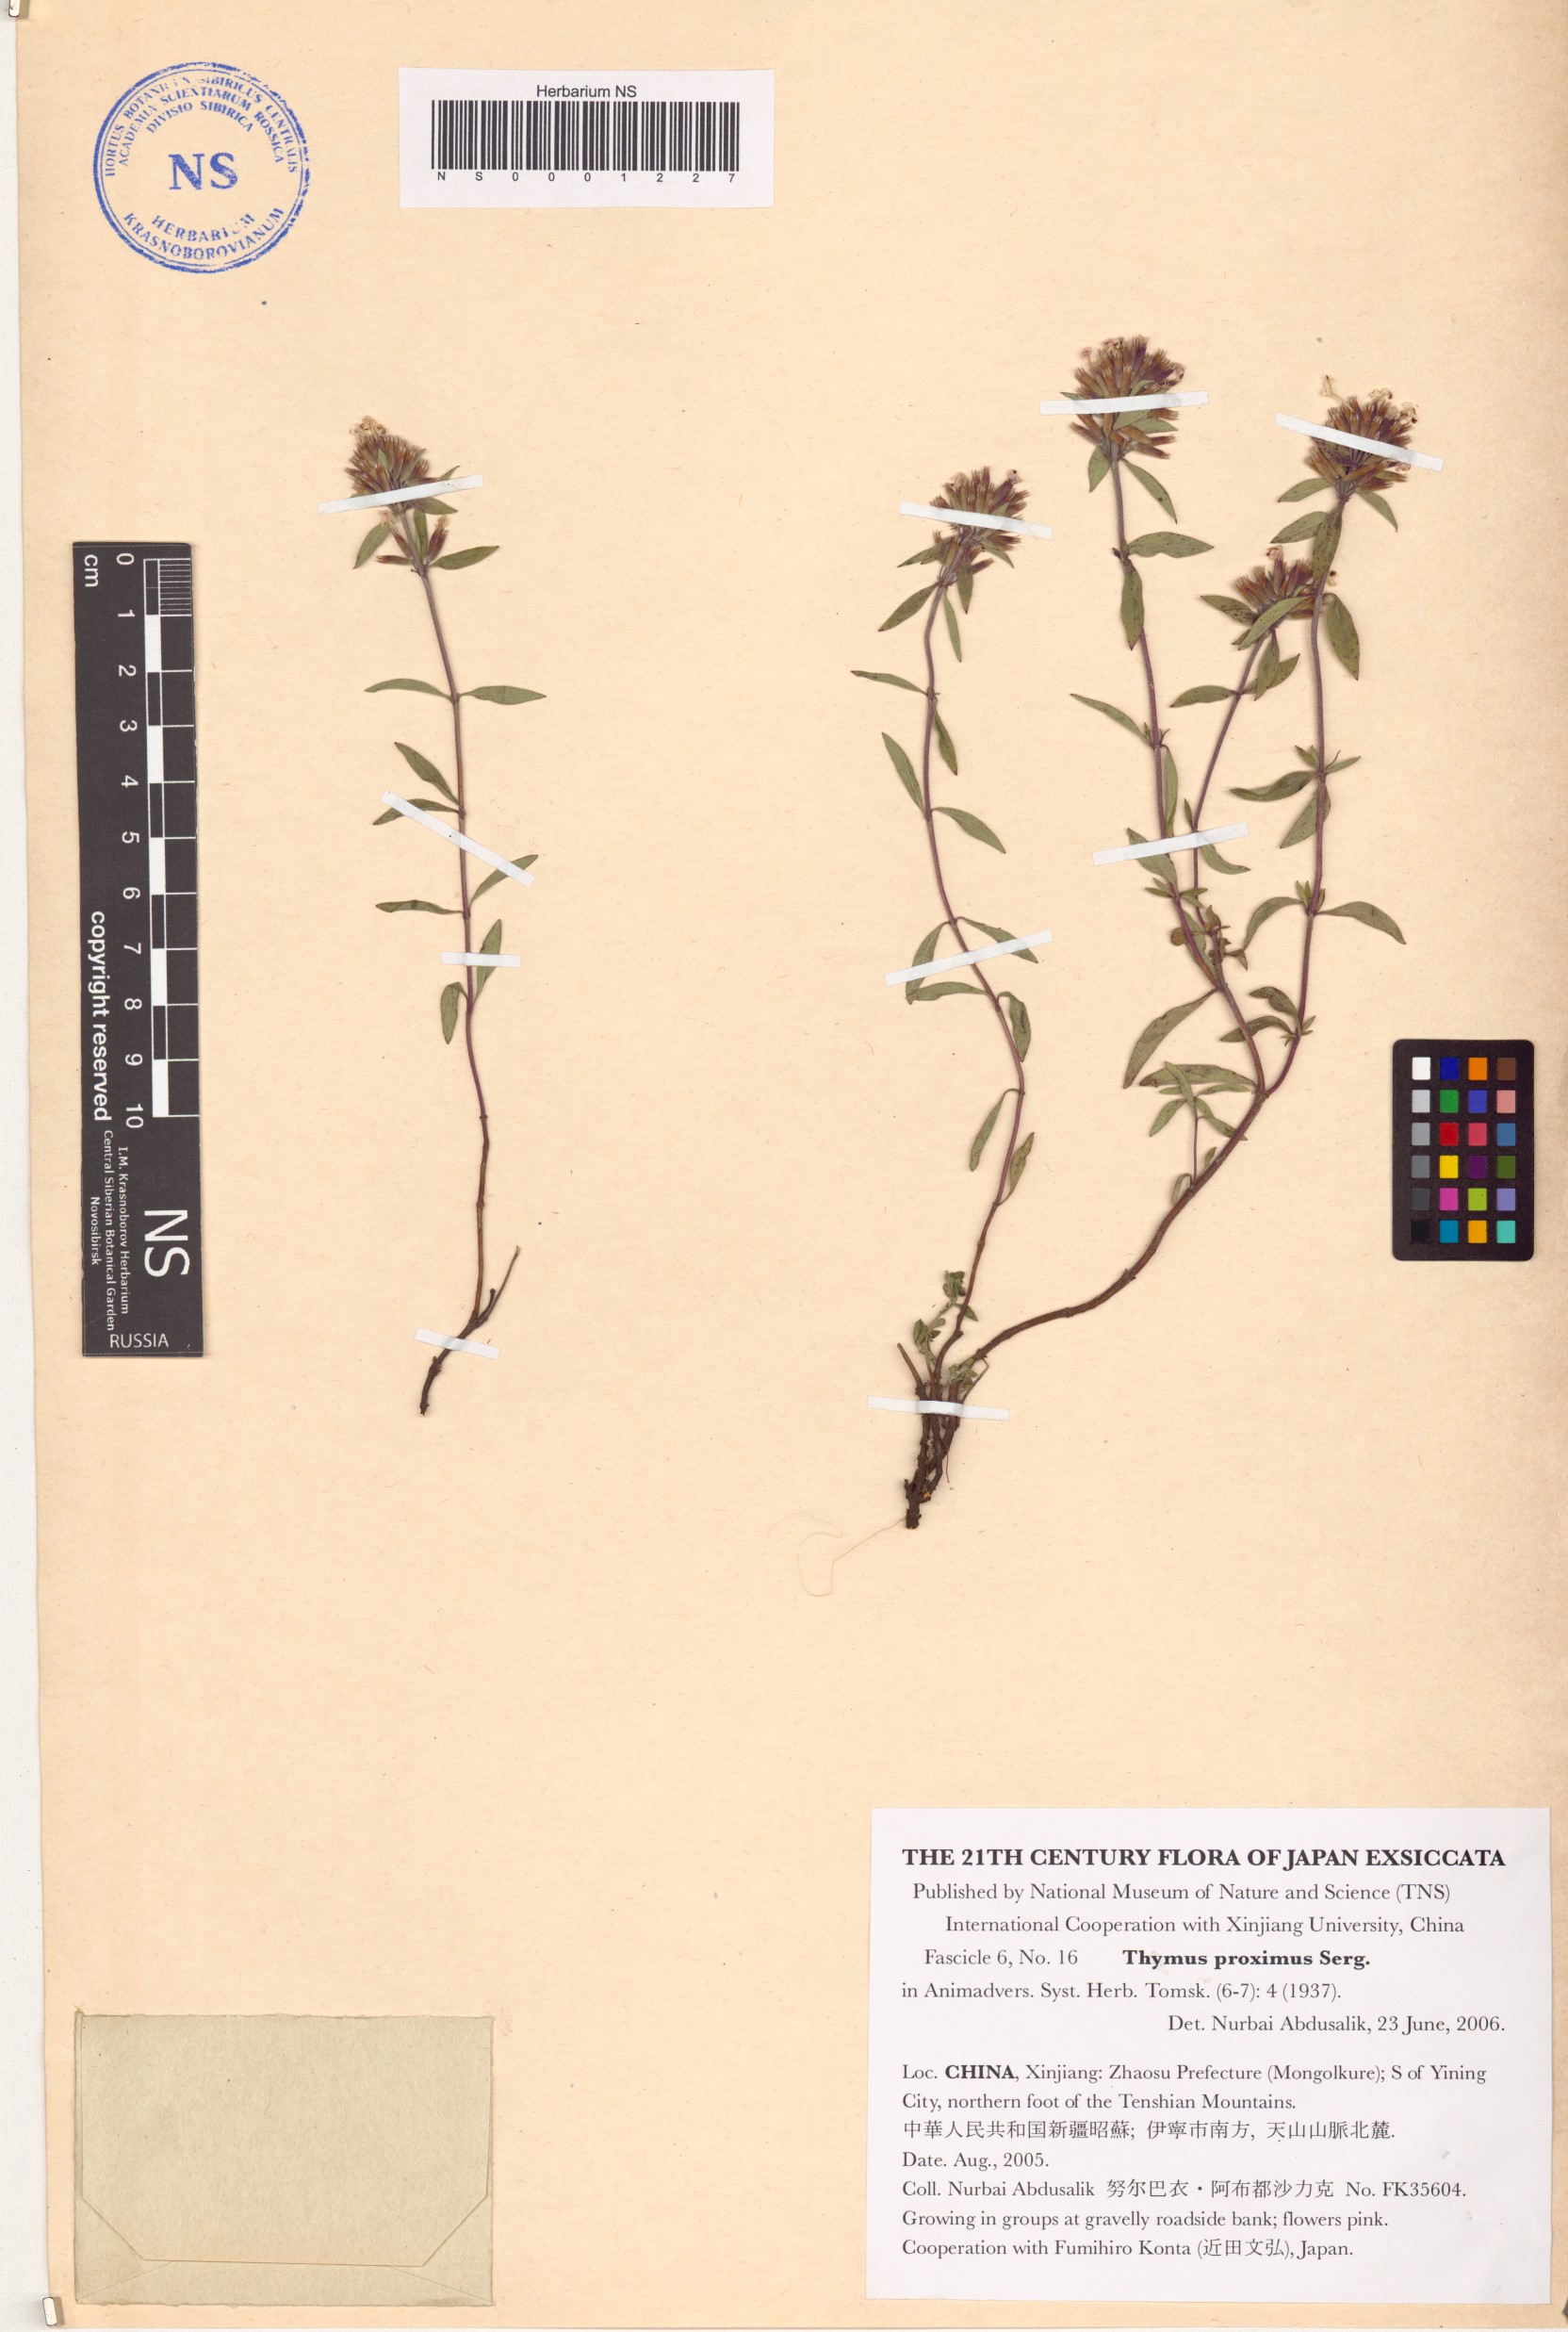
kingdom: Plantae
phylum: Tracheophyta
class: Magnoliopsida
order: Lamiales
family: Lamiaceae
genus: Thymus
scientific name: Thymus proximus
